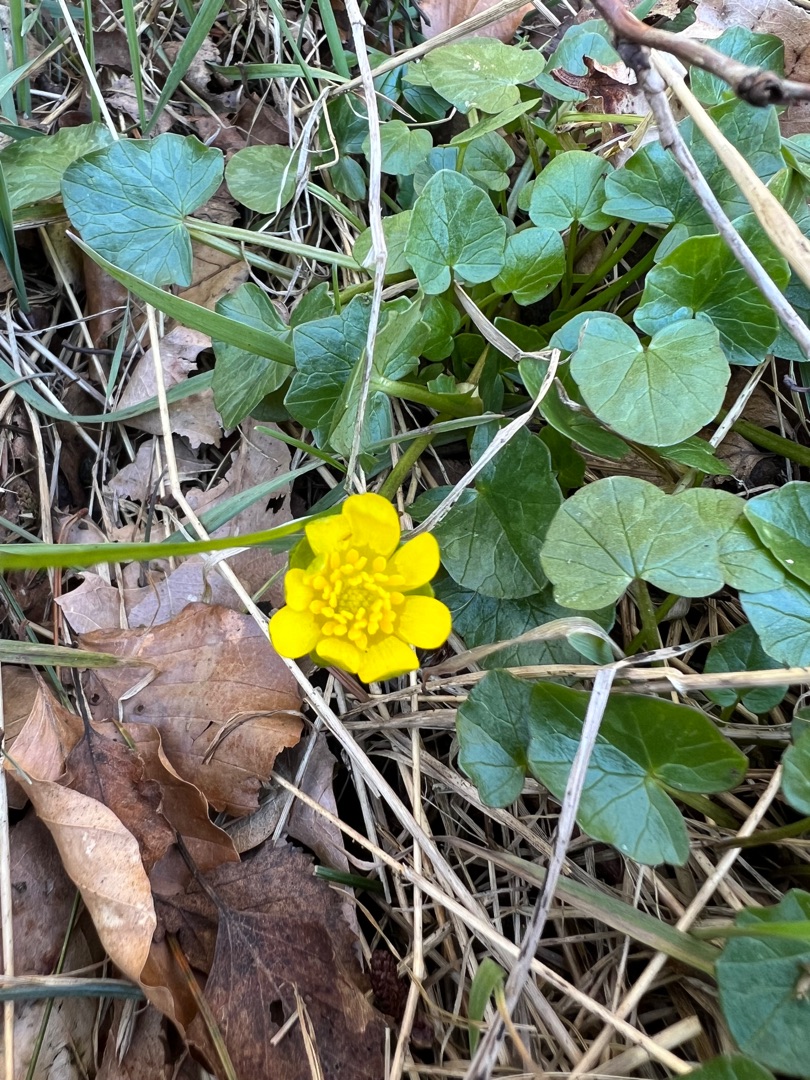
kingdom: Plantae
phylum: Tracheophyta
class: Magnoliopsida
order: Ranunculales
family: Ranunculaceae
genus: Ficaria
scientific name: Ficaria verna
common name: Vorterod
